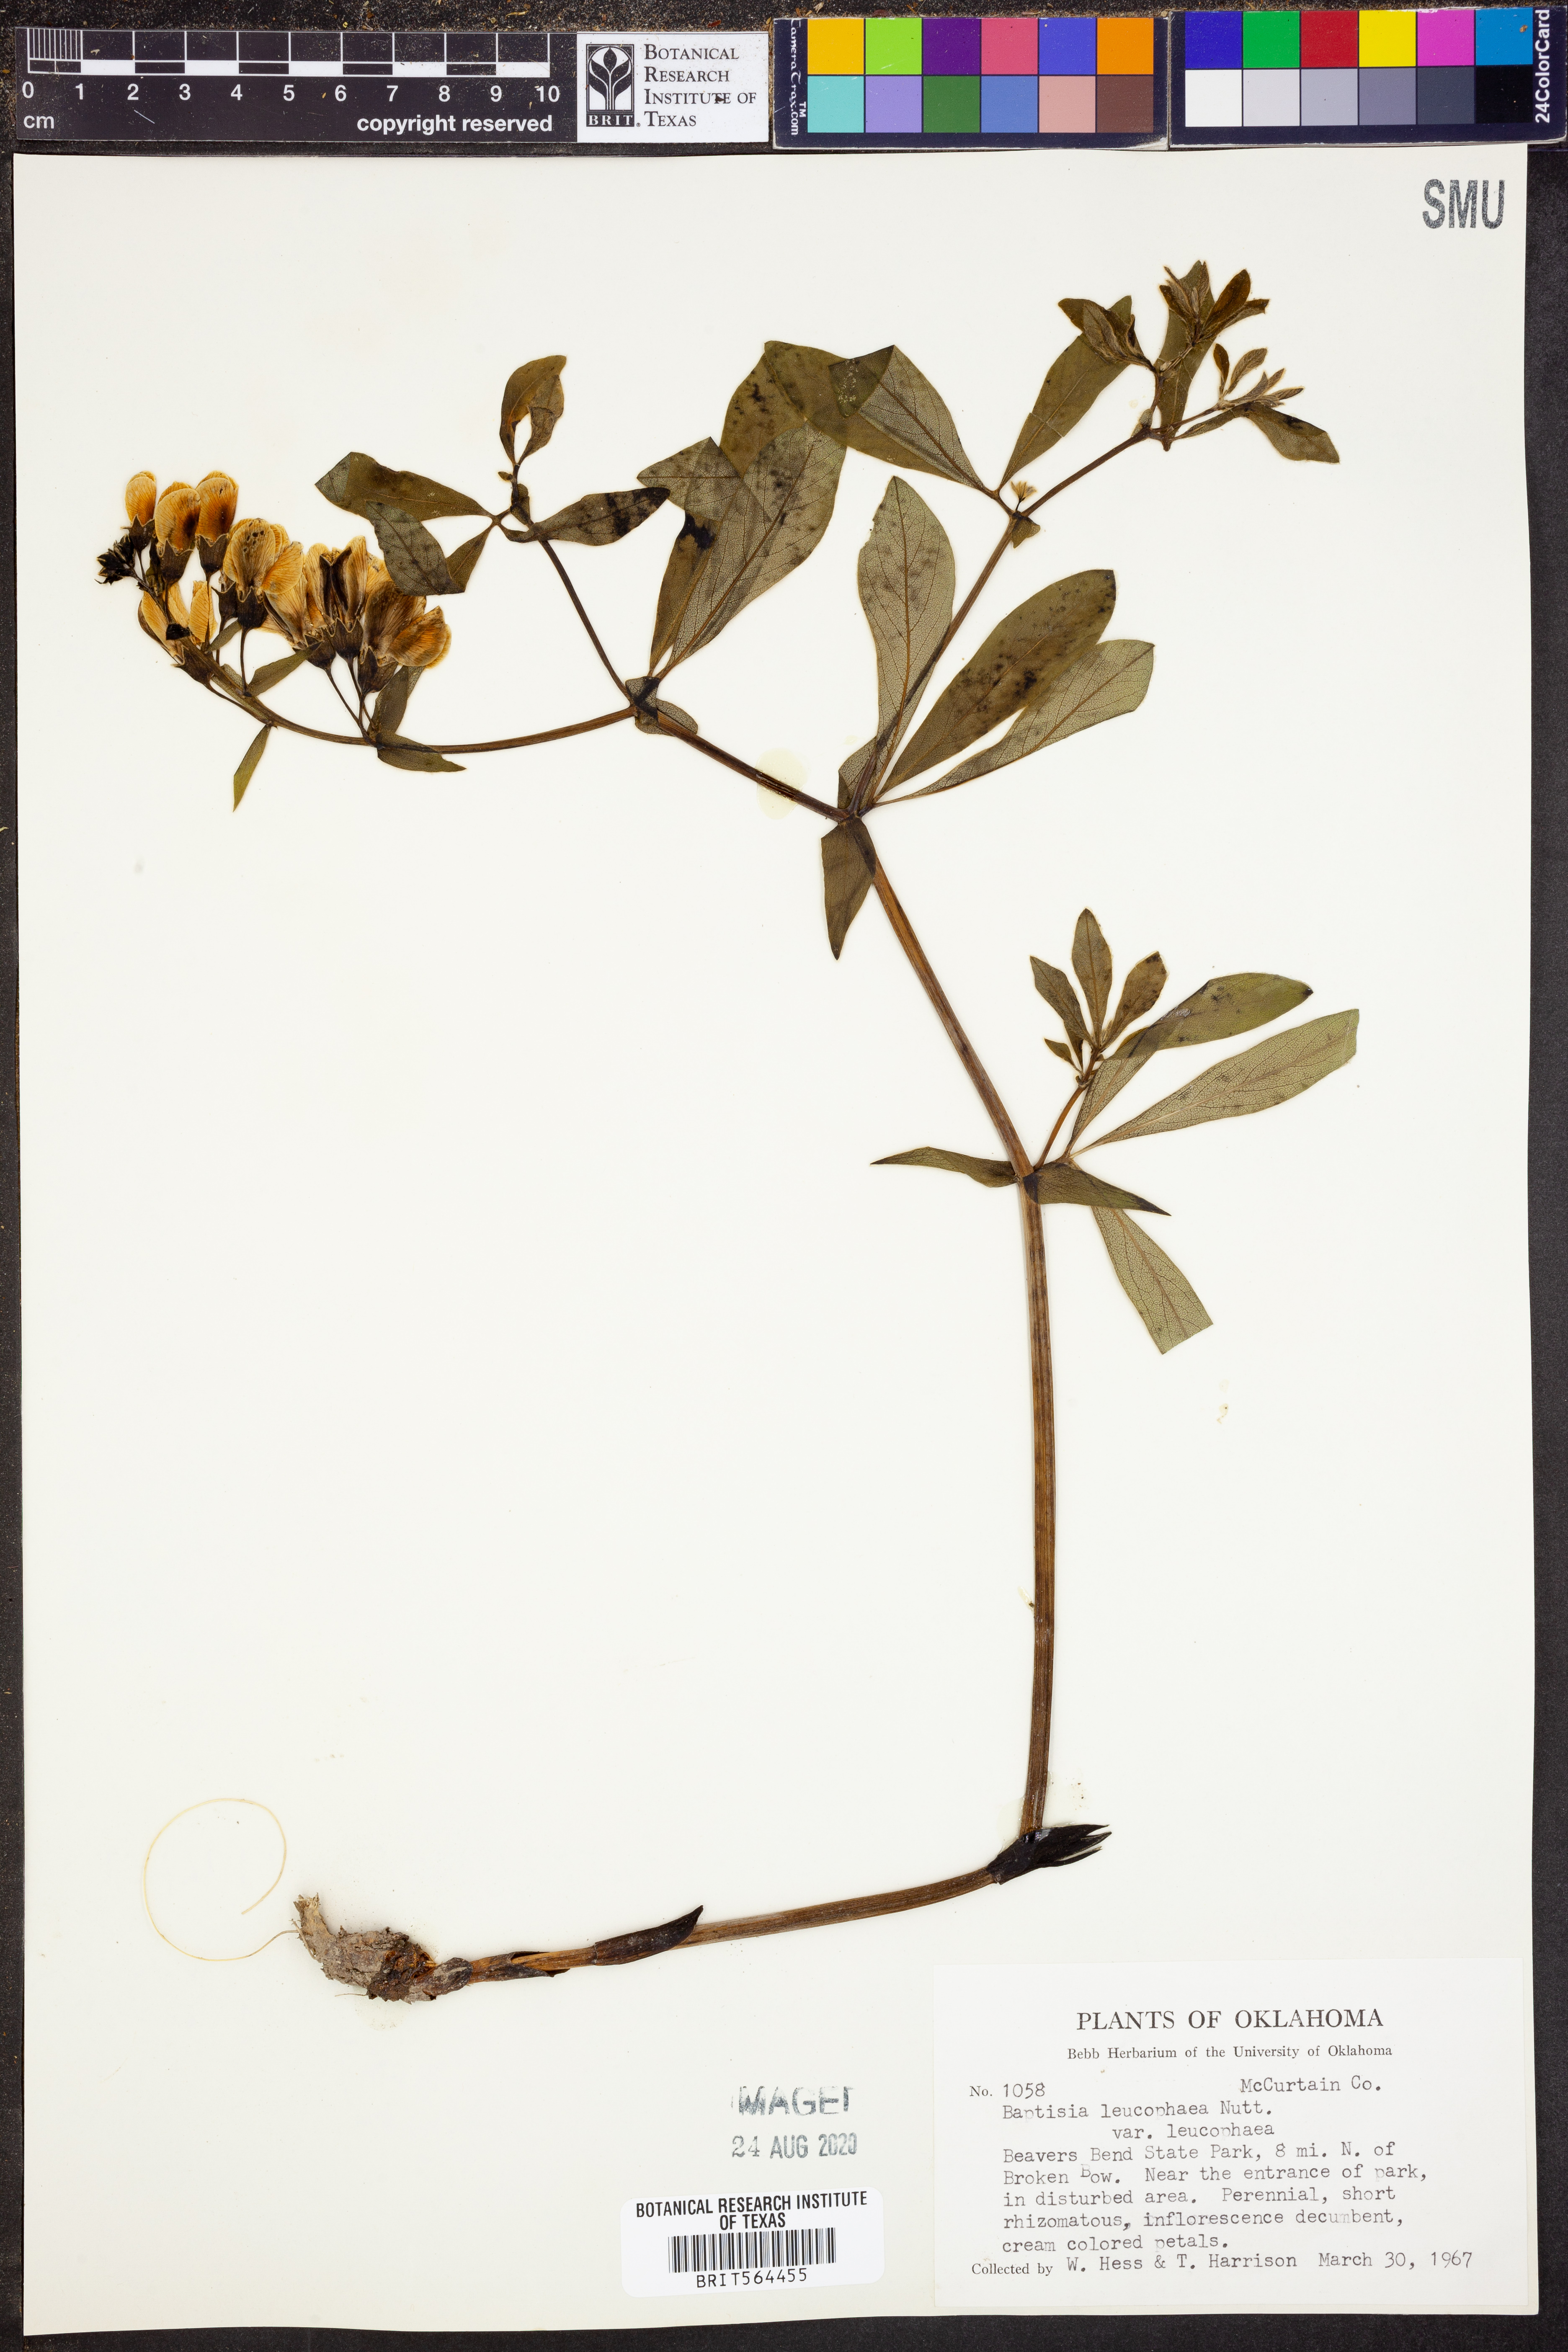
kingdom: Plantae
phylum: Tracheophyta
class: Magnoliopsida
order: Fabales
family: Fabaceae
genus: Baptisia
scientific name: Baptisia bracteata
